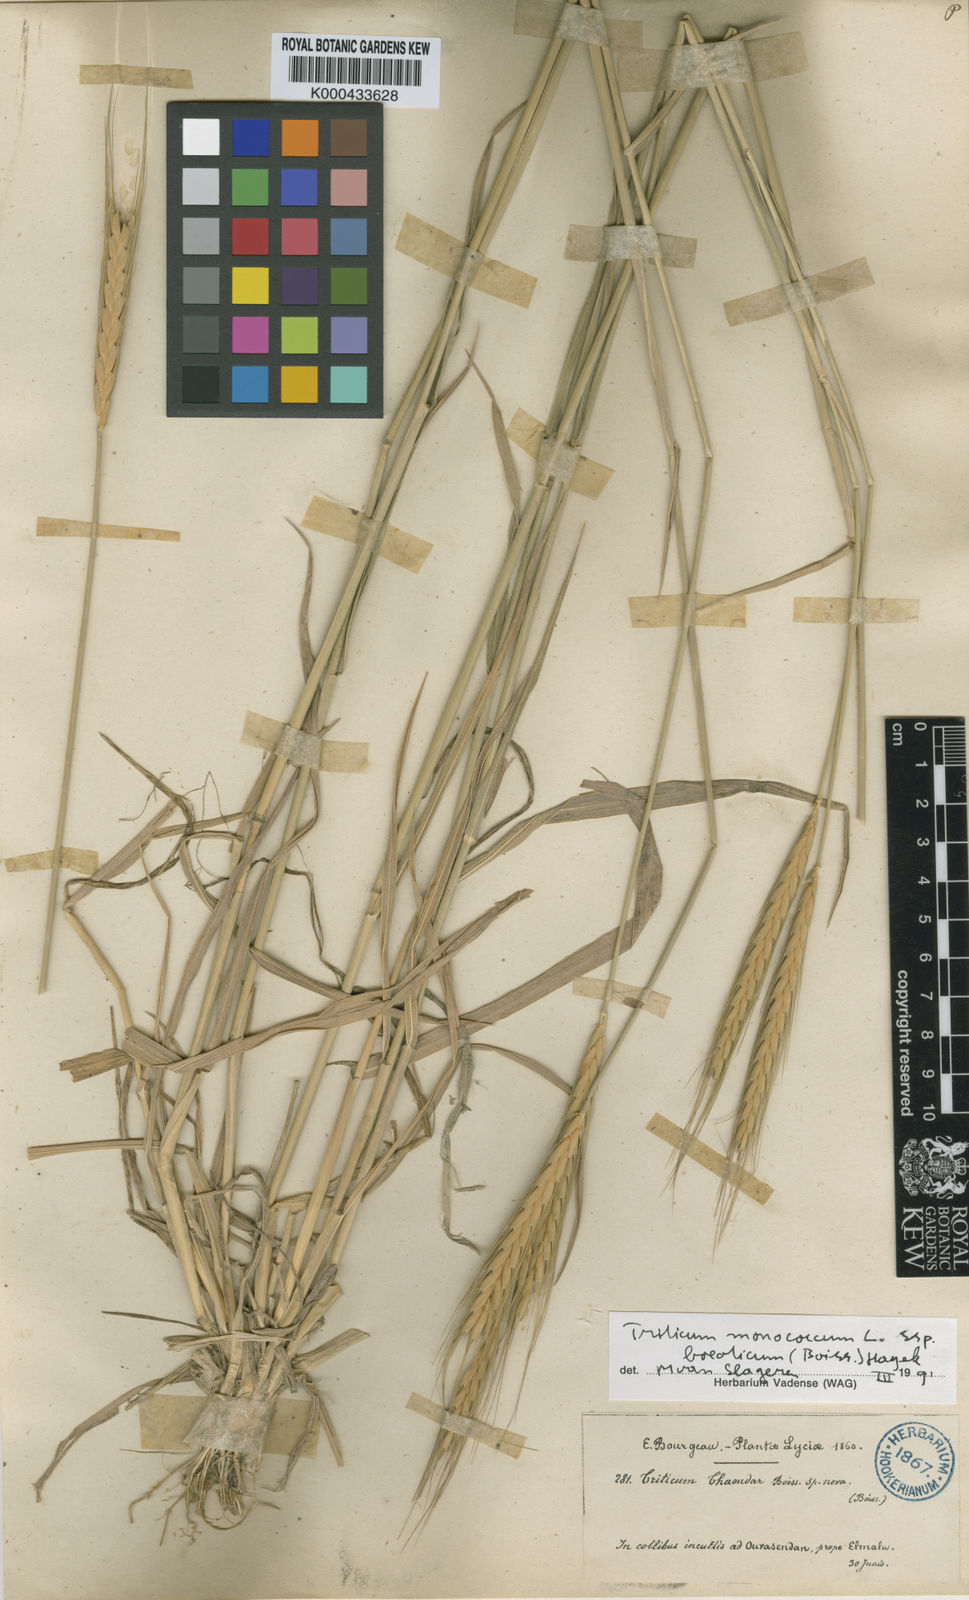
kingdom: Plantae
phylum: Tracheophyta
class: Liliopsida
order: Poales
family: Poaceae
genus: Triticum
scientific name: Triticum monococcum
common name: Einkorn
